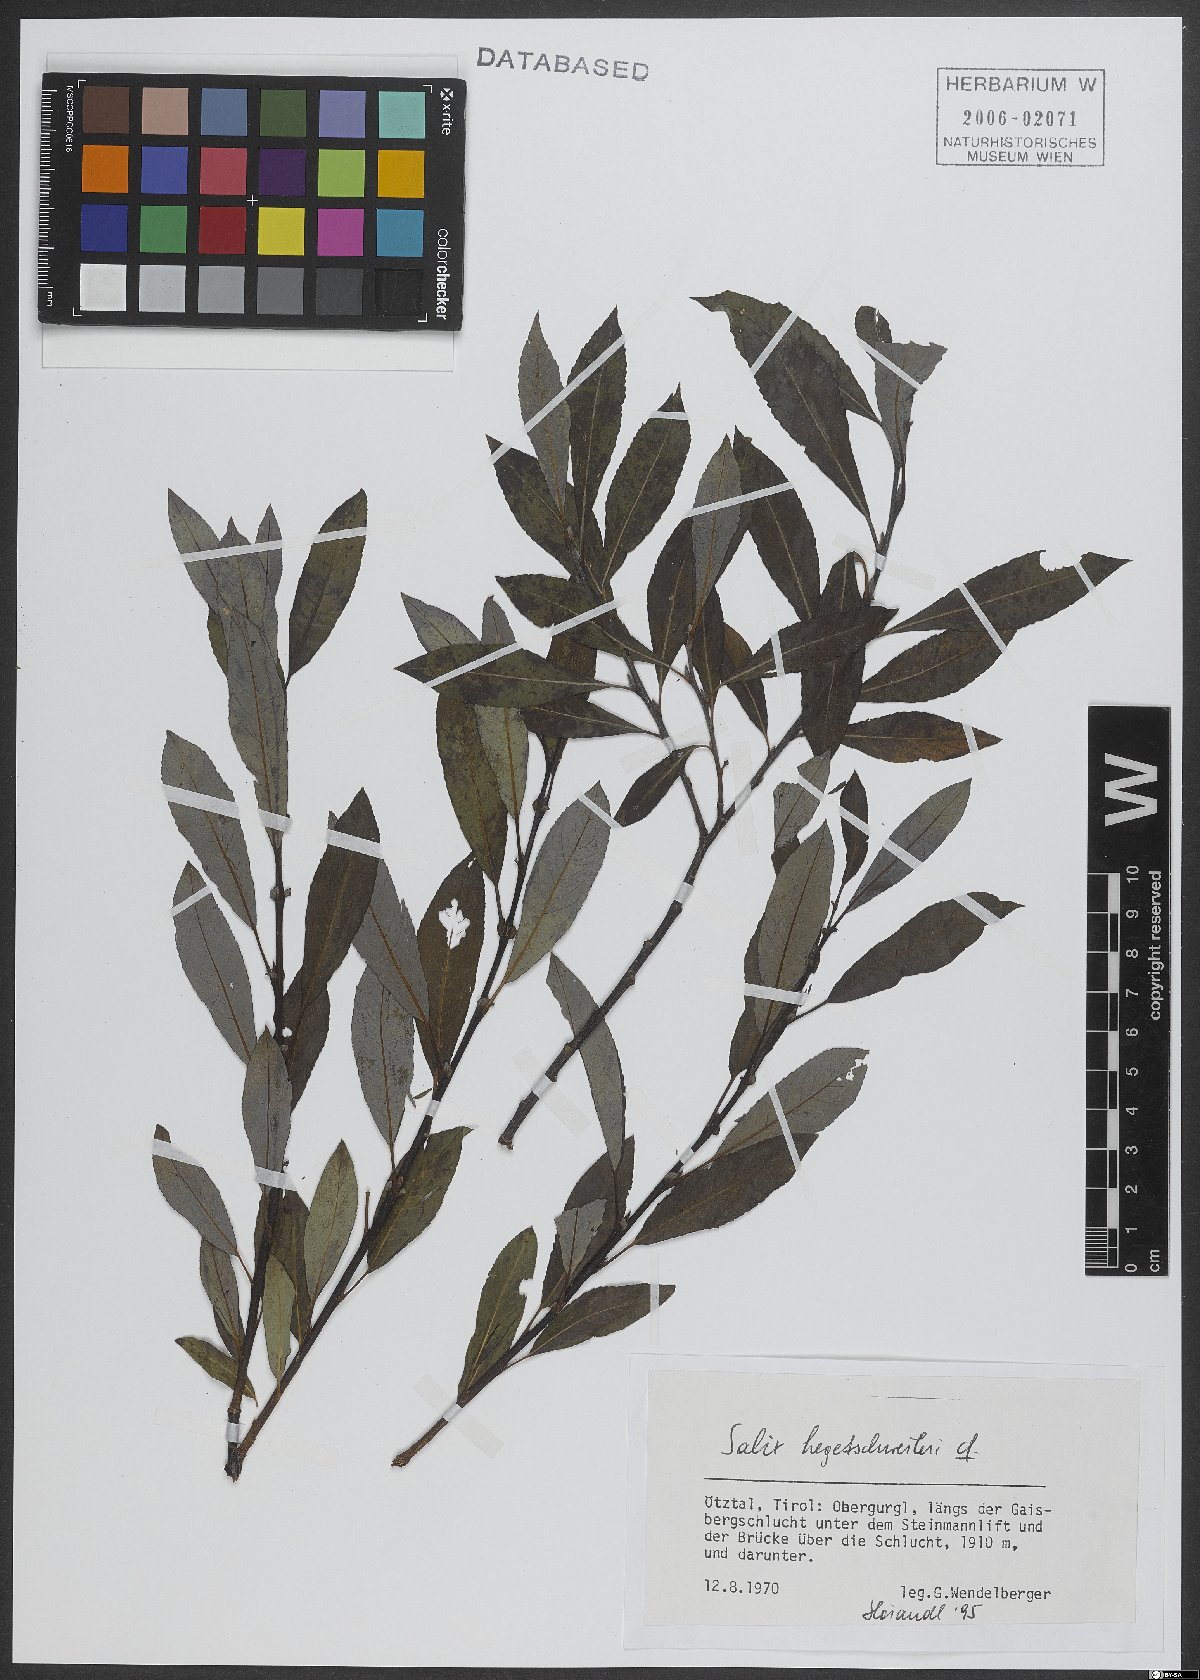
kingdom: Plantae
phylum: Tracheophyta
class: Magnoliopsida
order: Malpighiales
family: Salicaceae
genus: Salix
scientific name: Salix hegetschweileri
